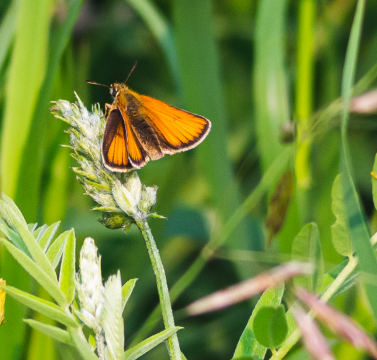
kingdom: Animalia
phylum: Arthropoda
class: Insecta
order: Lepidoptera
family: Hesperiidae
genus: Thymelicus
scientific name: Thymelicus lineola
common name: European Skipper
